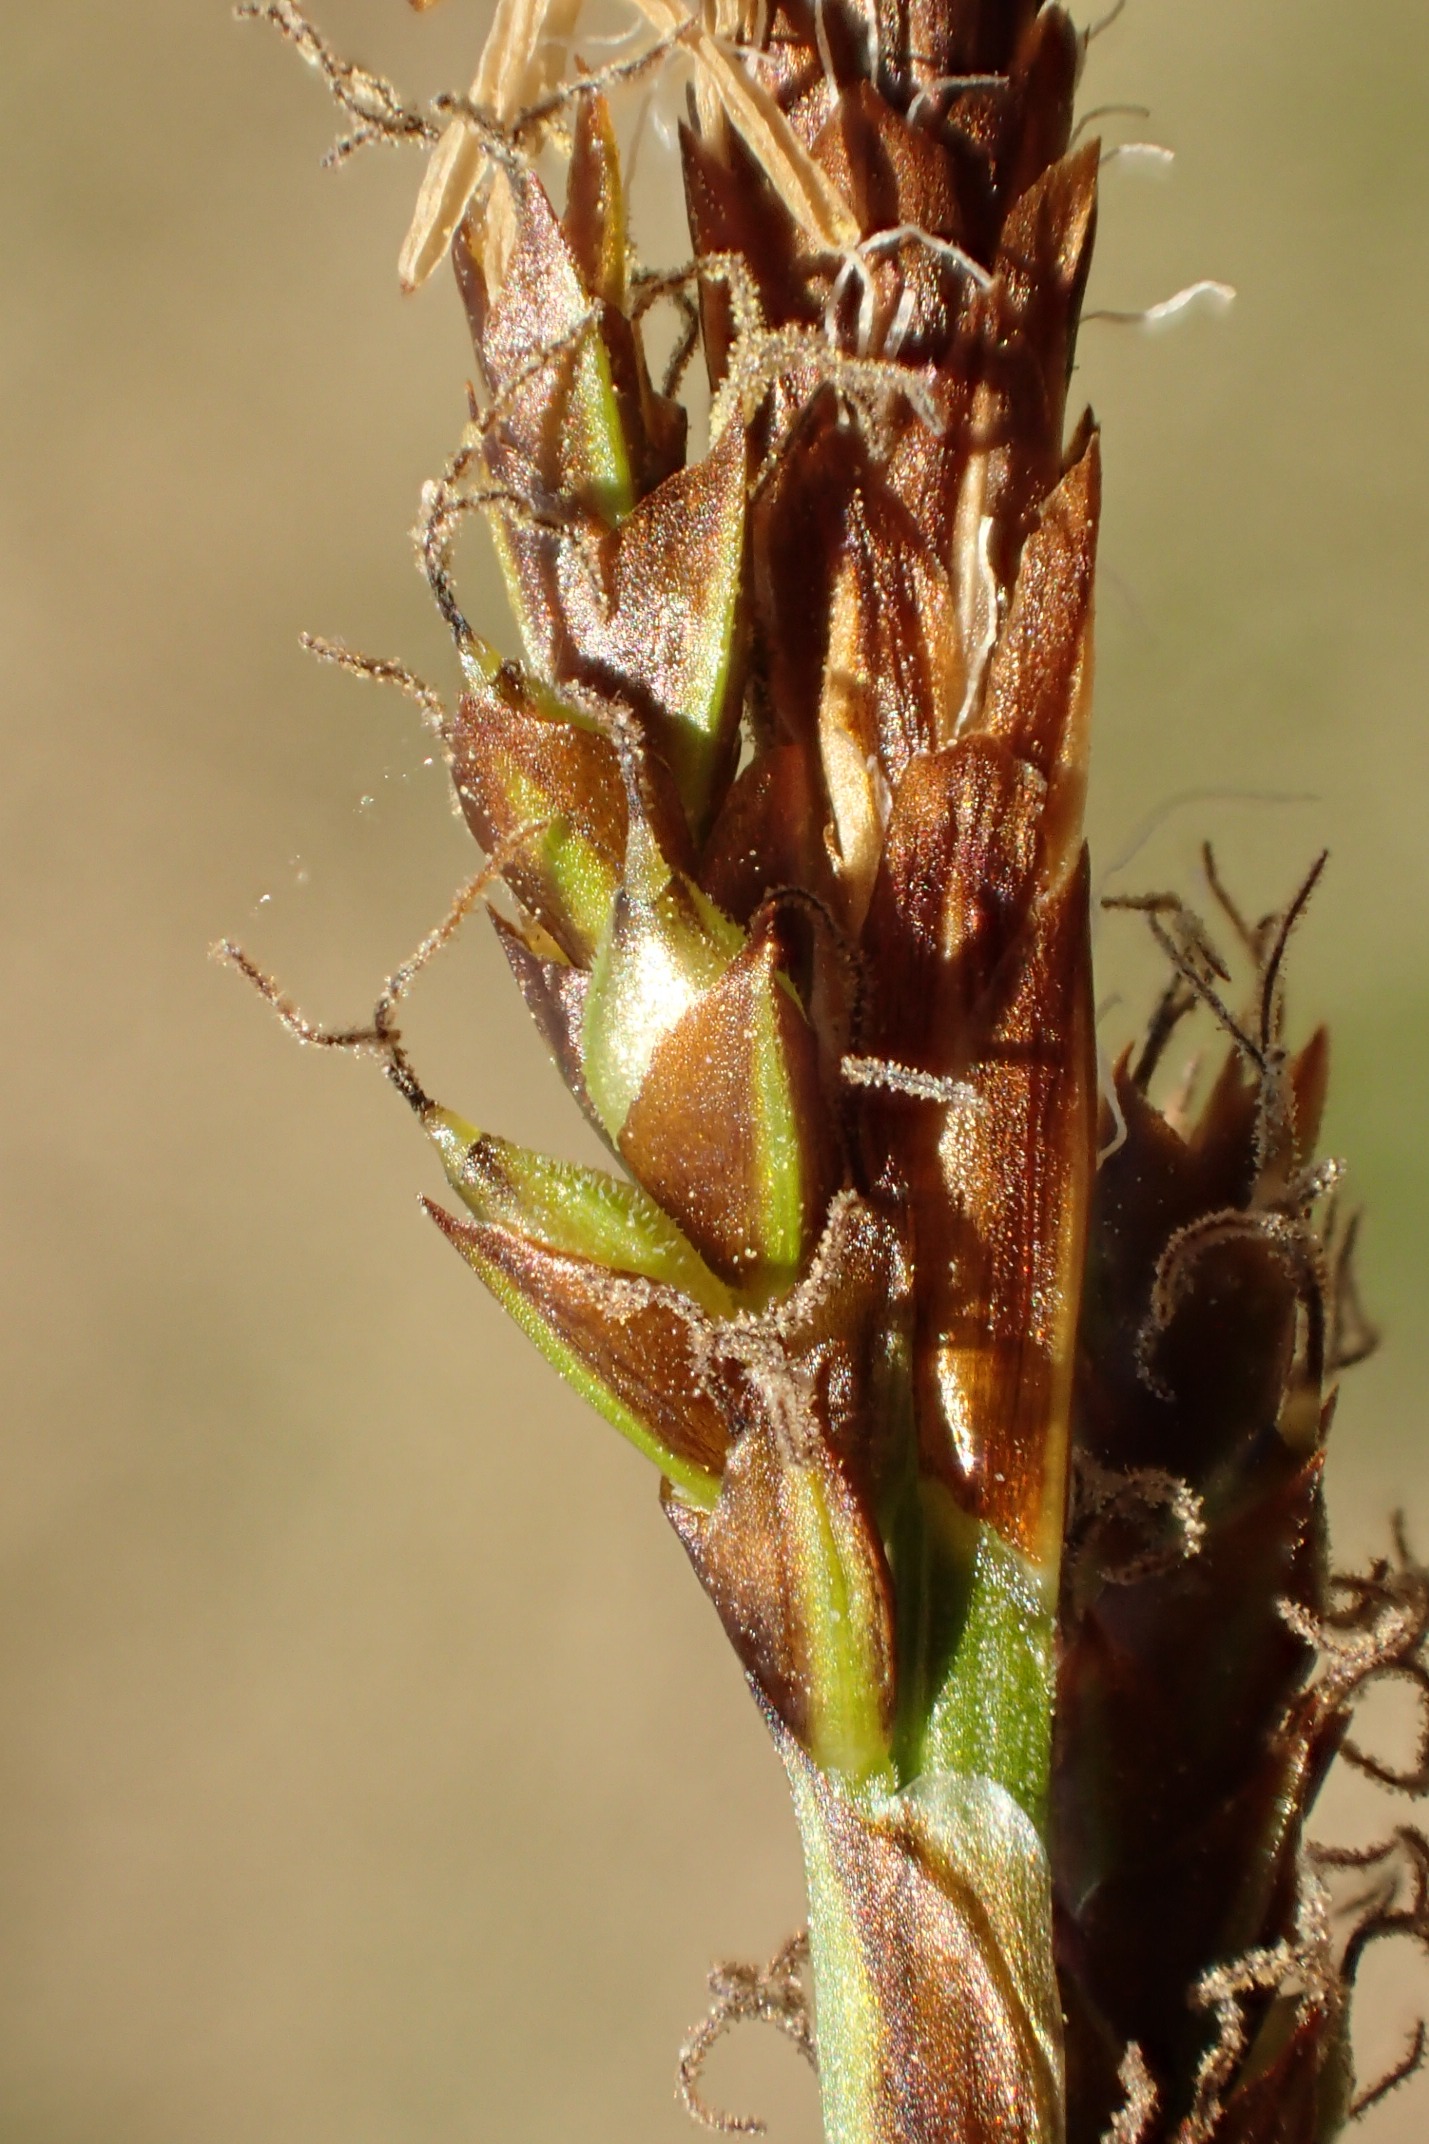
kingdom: Plantae
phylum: Tracheophyta
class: Liliopsida
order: Poales
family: Cyperaceae
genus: Carex
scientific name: Carex caryophyllea
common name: Vår-star
